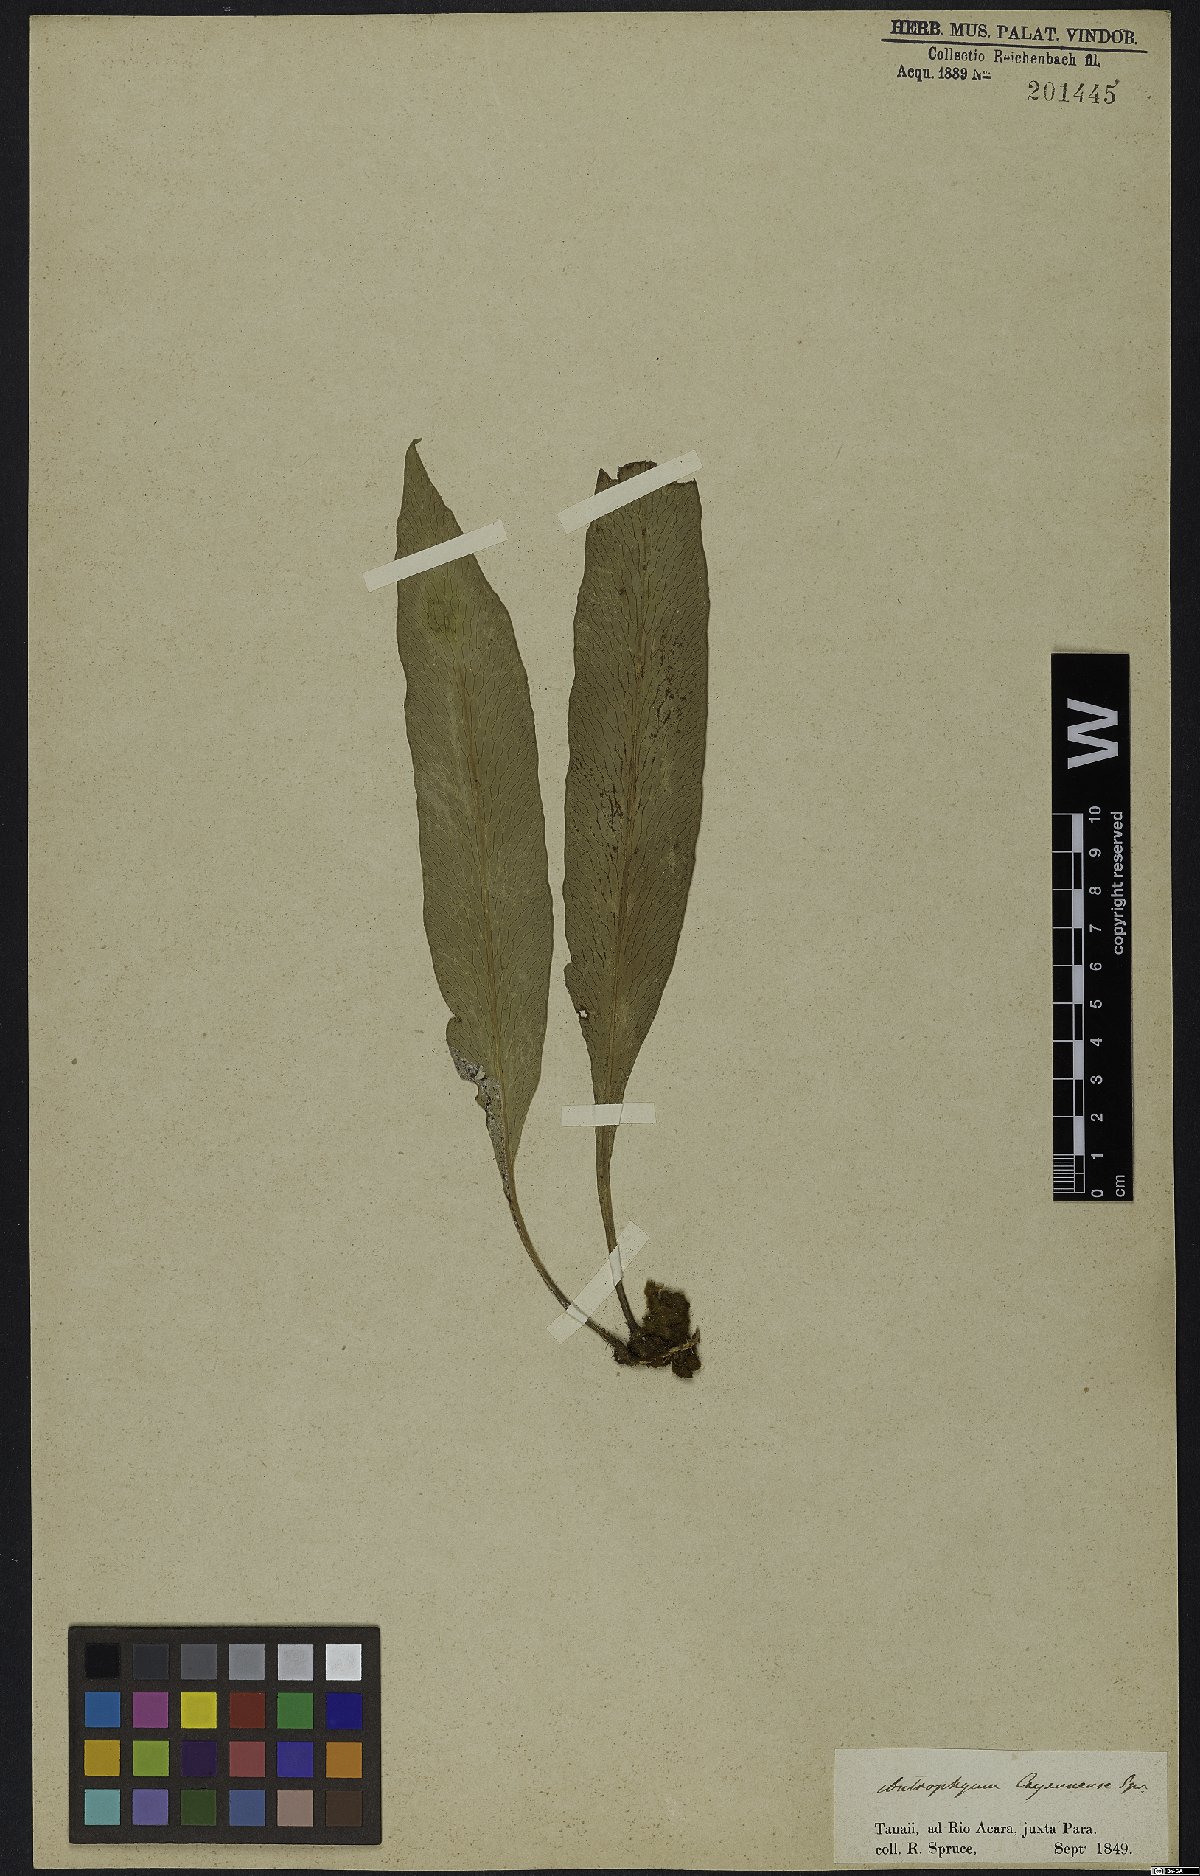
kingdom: Plantae
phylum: Tracheophyta
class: Polypodiopsida
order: Polypodiales
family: Pteridaceae
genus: Polytaenium
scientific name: Polytaenium cajenense
